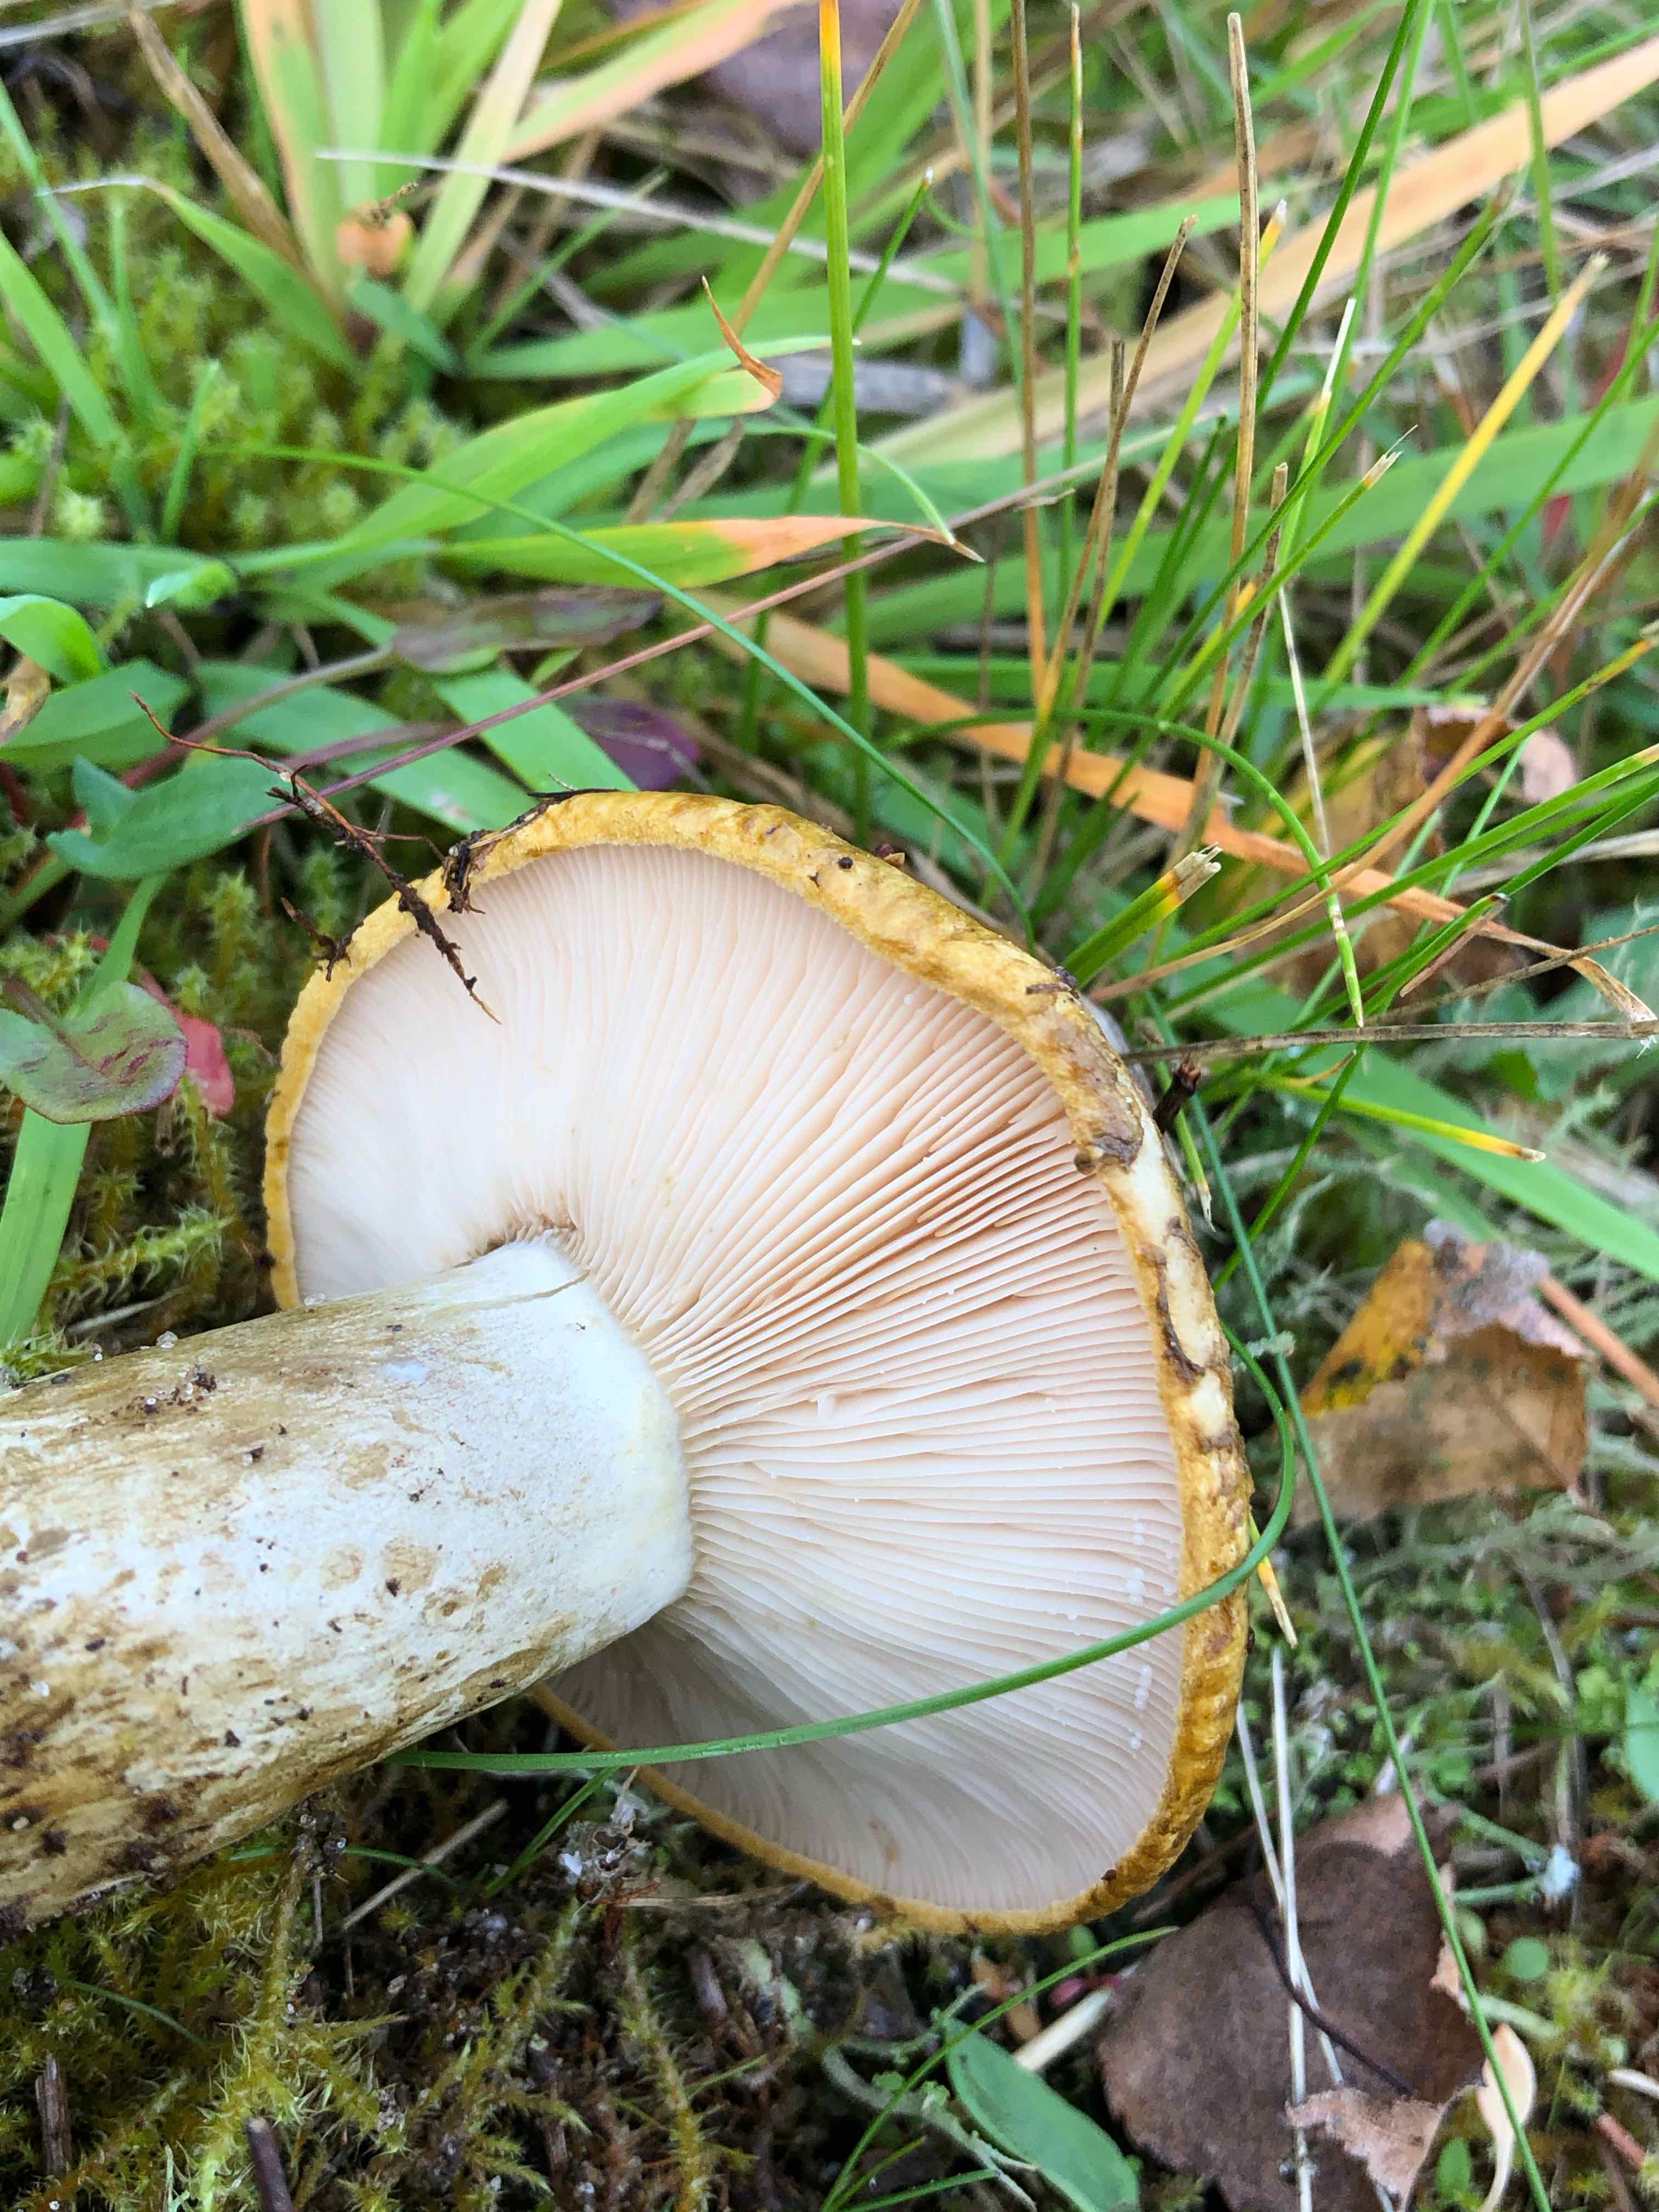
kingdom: Fungi
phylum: Basidiomycota
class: Agaricomycetes
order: Russulales
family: Russulaceae
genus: Lactarius
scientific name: Lactarius necator
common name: manddraber-mælkehat
